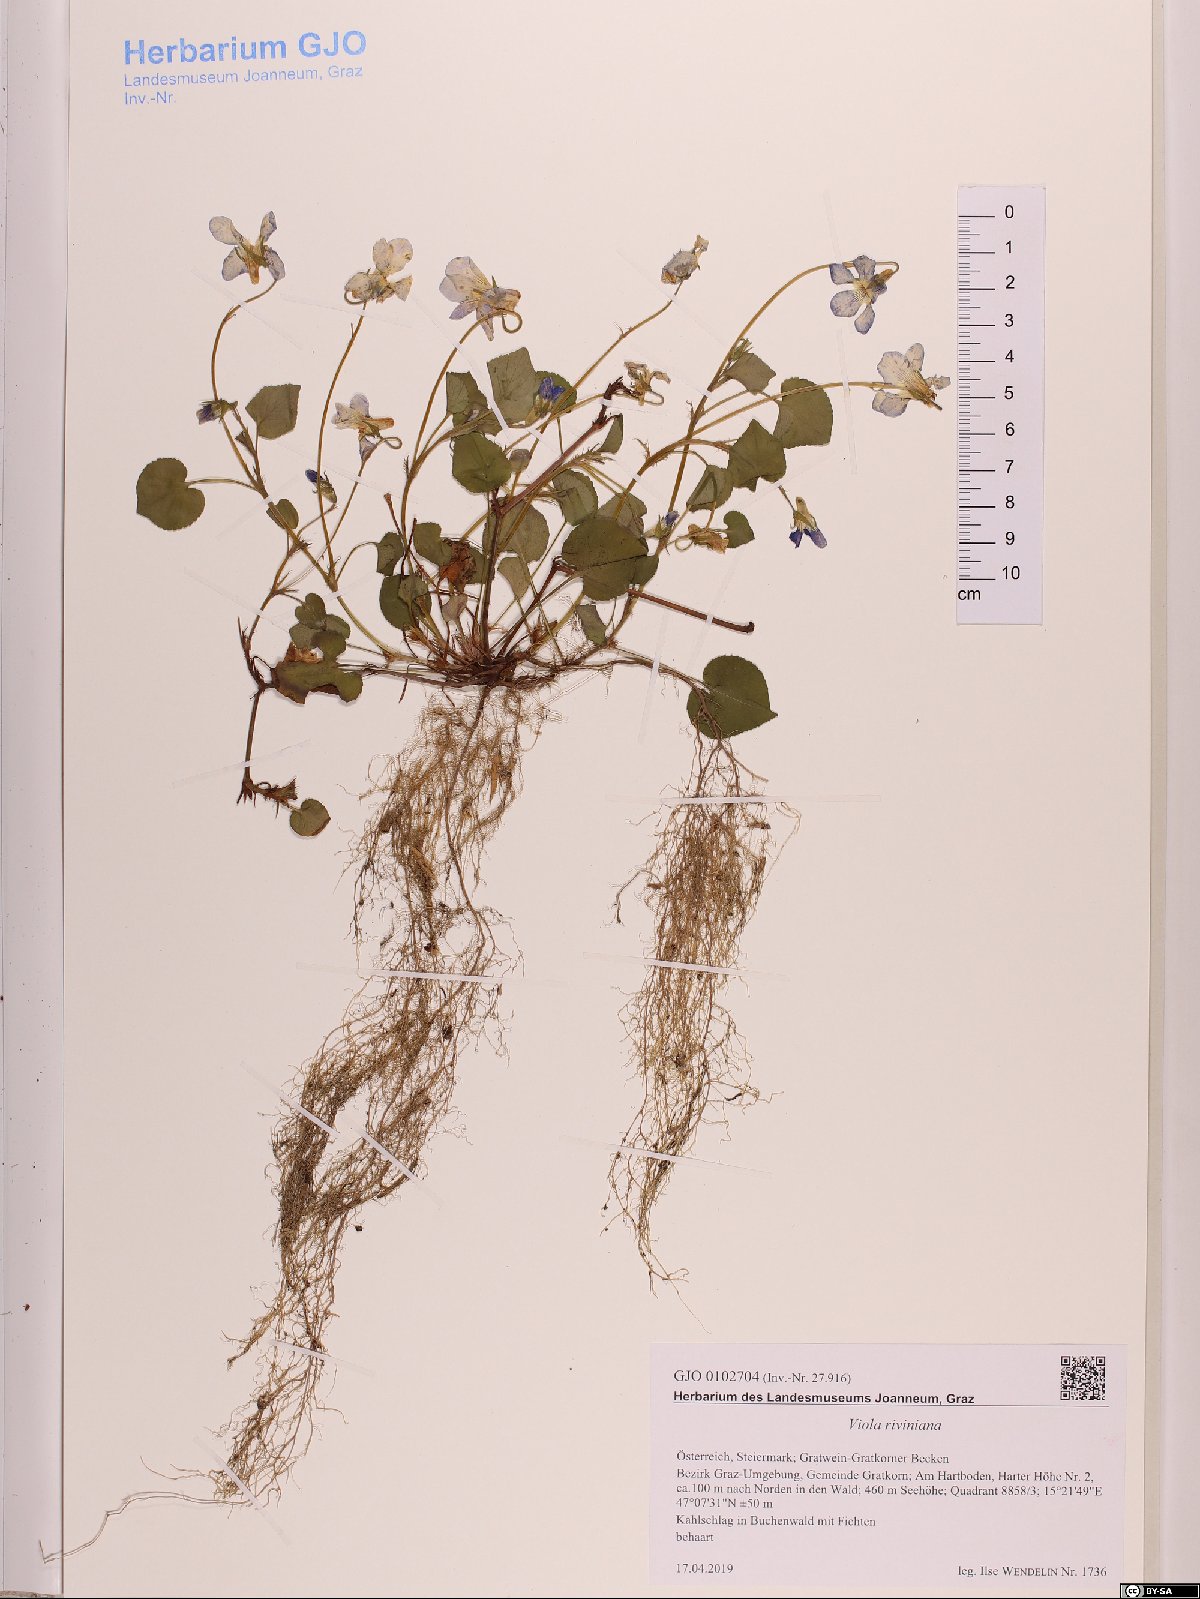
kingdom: Plantae
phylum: Tracheophyta
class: Magnoliopsida
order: Malpighiales
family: Violaceae
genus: Viola
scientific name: Viola riviniana
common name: Common dog-violet
